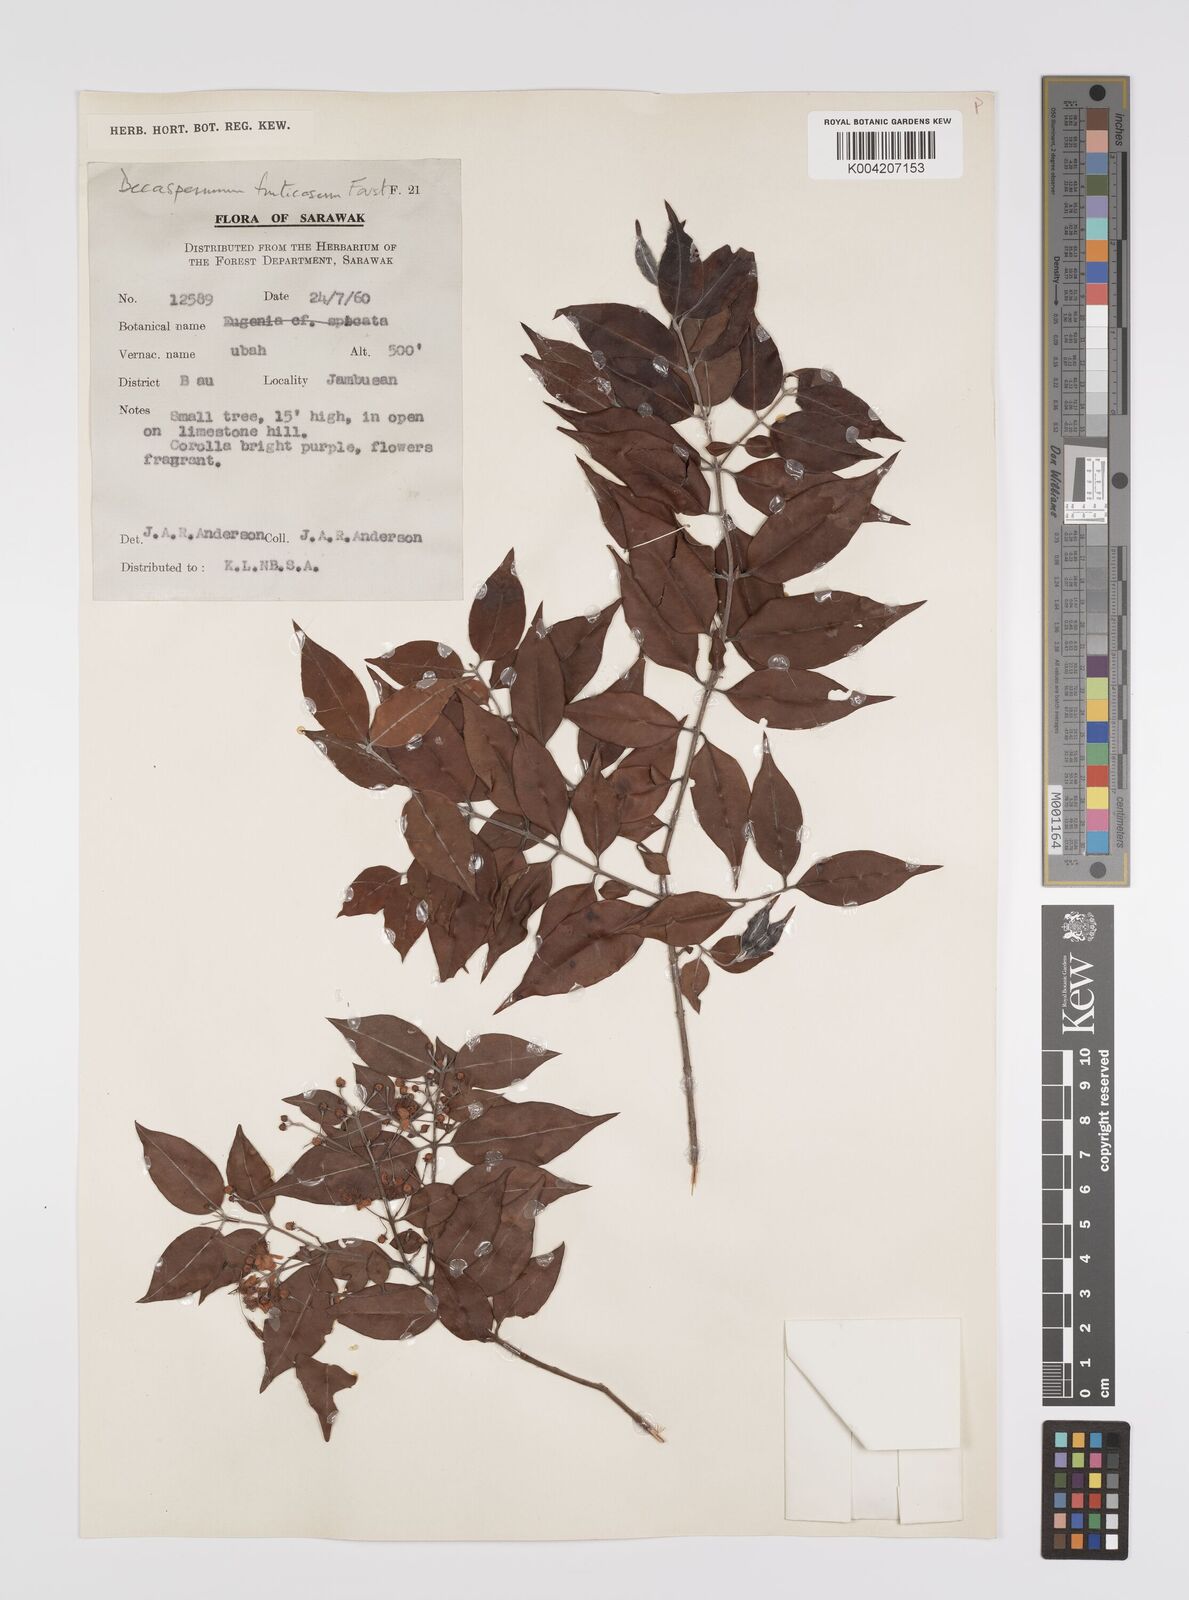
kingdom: Plantae
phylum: Tracheophyta
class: Magnoliopsida
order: Myrtales
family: Myrtaceae
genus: Decaspermum
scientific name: Decaspermum fruticosum
